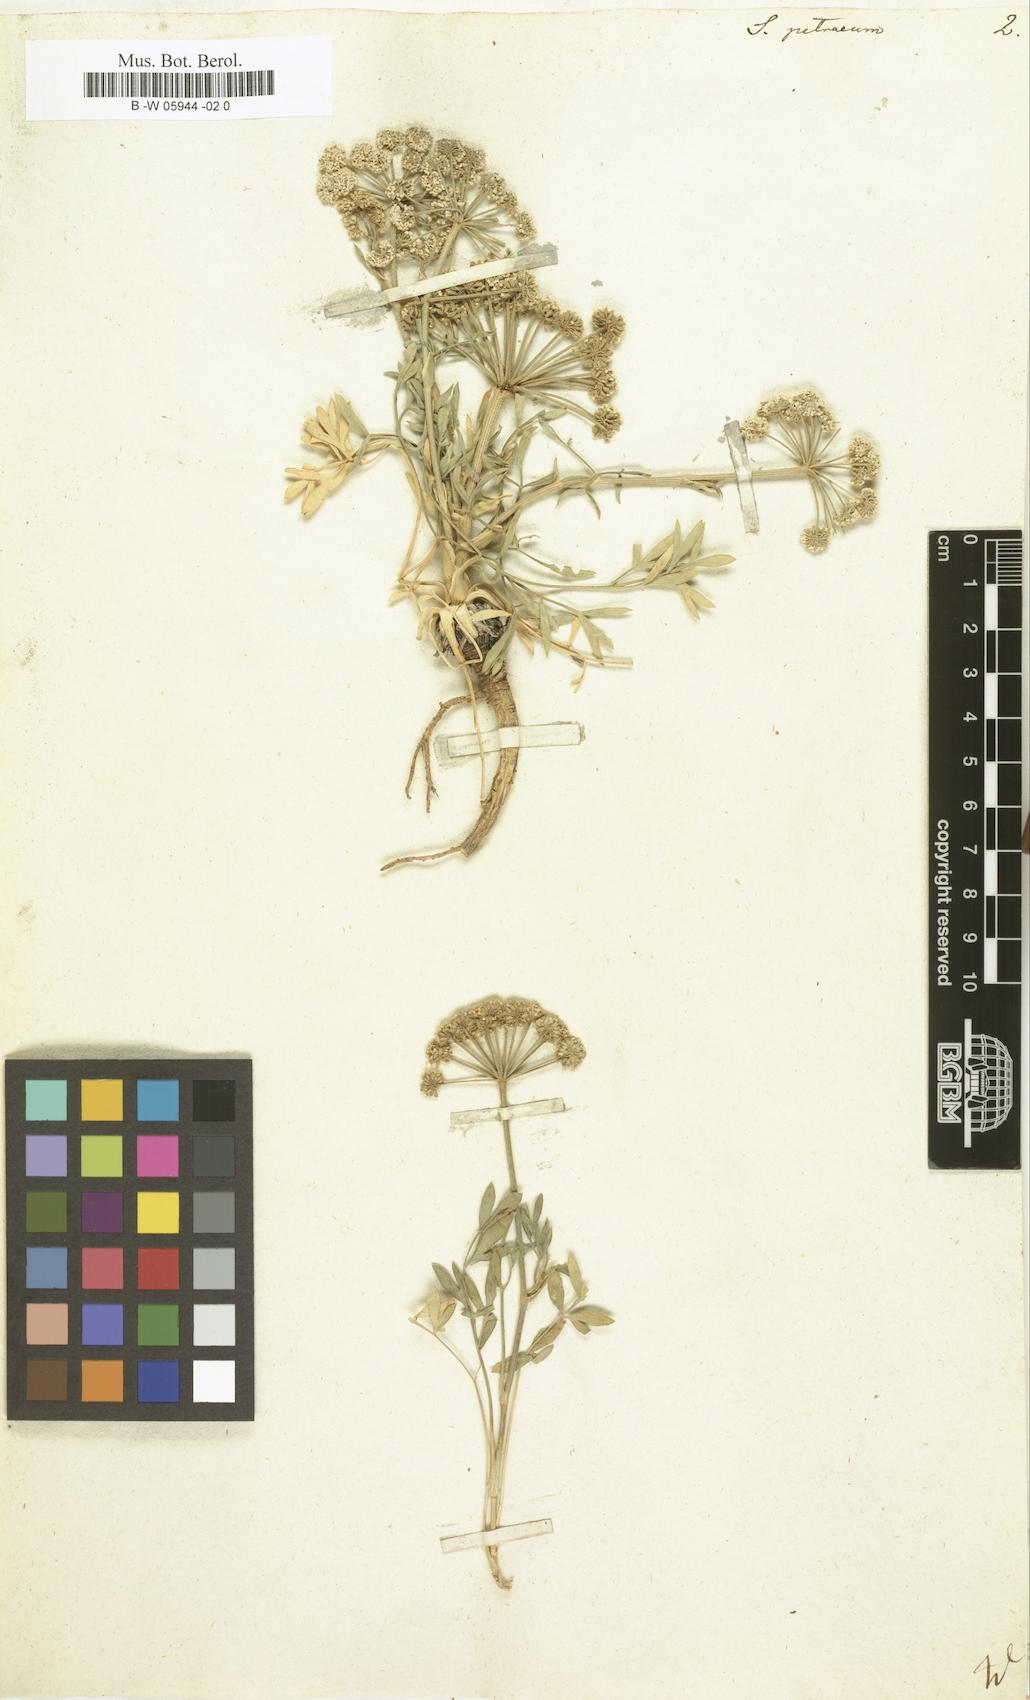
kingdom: Plantae
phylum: Tracheophyta
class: Magnoliopsida
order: Apiales
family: Apiaceae
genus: Hippomarathrum
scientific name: Hippomarathrum petraeum
